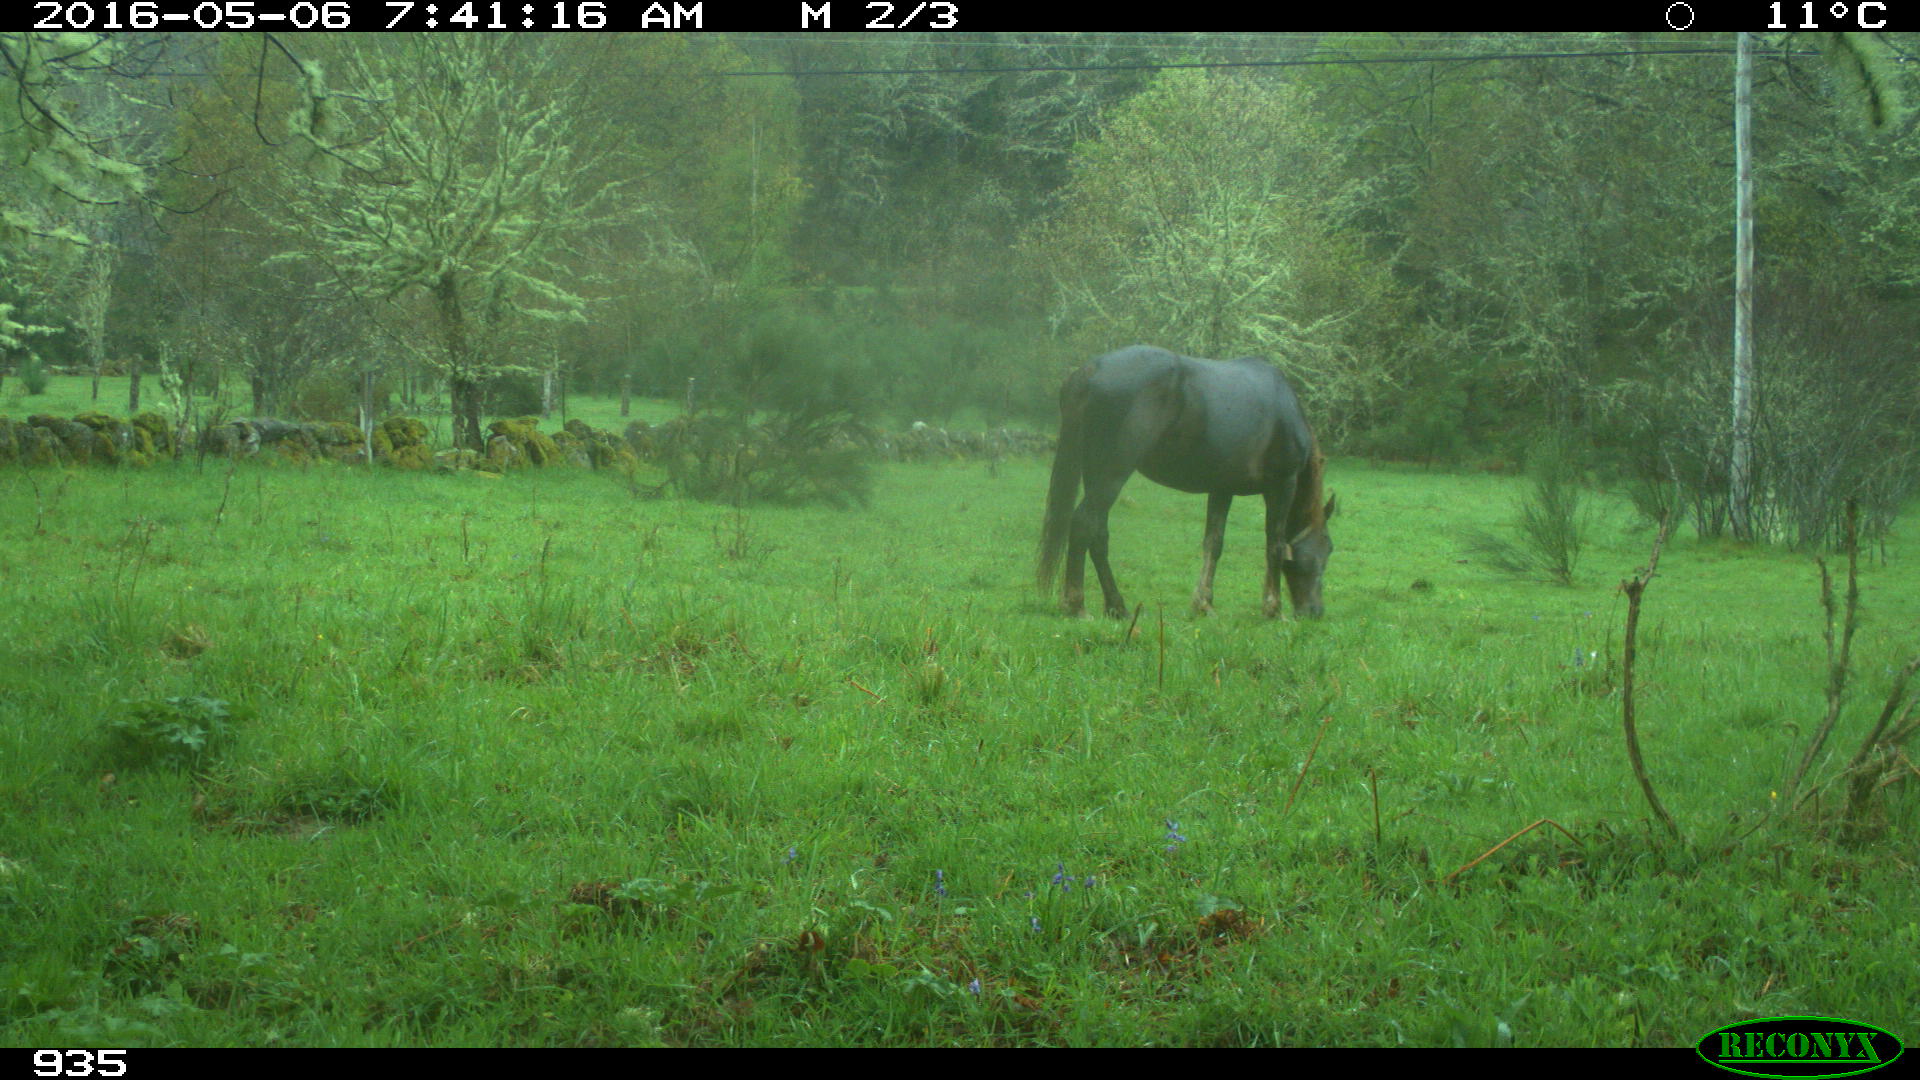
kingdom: Animalia
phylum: Chordata
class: Mammalia
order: Perissodactyla
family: Equidae
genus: Equus
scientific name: Equus caballus
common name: Horse
